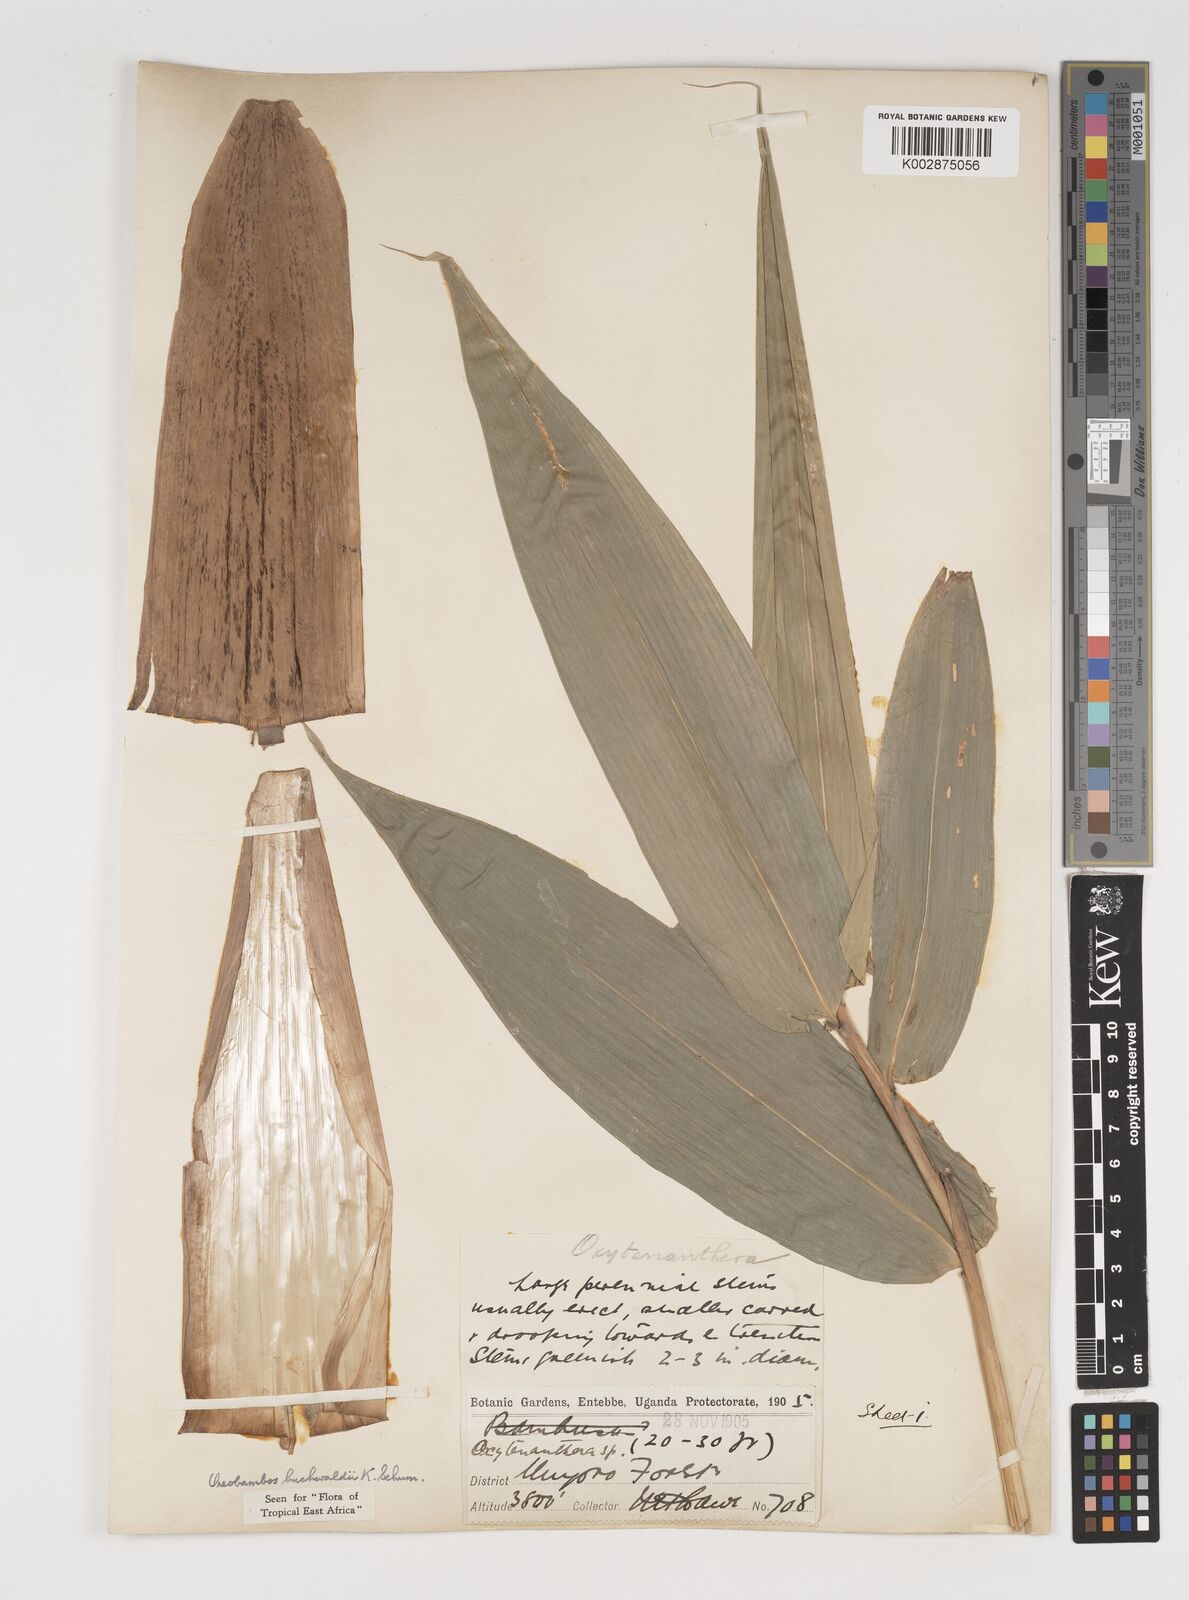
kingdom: Plantae
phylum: Tracheophyta
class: Liliopsida
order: Poales
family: Poaceae
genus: Oreobambos
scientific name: Oreobambos
